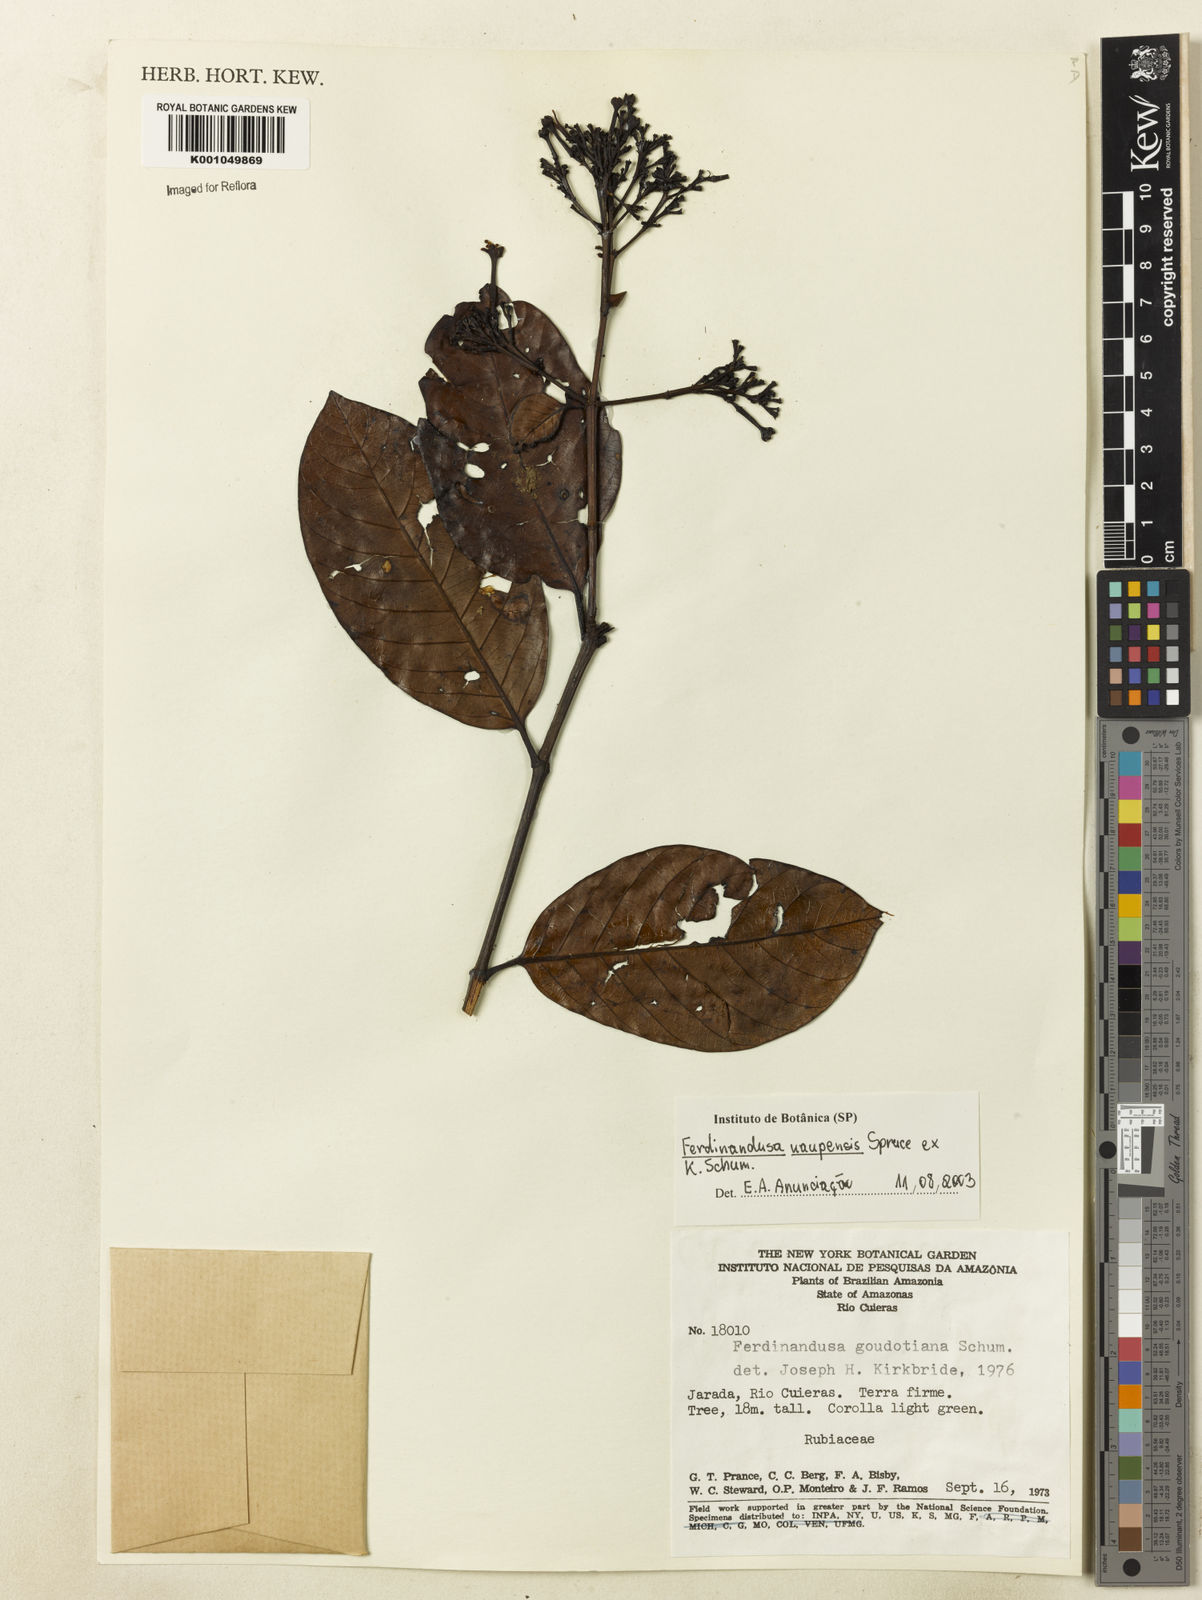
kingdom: Plantae
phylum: Tracheophyta
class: Magnoliopsida
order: Gentianales
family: Rubiaceae
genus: Ferdinandusa
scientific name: Ferdinandusa uaupensis
